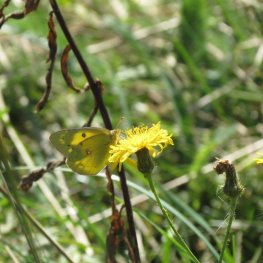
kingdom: Animalia
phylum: Arthropoda
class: Insecta
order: Lepidoptera
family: Pieridae
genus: Colias
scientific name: Colias eurytheme
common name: Orange Sulphur
